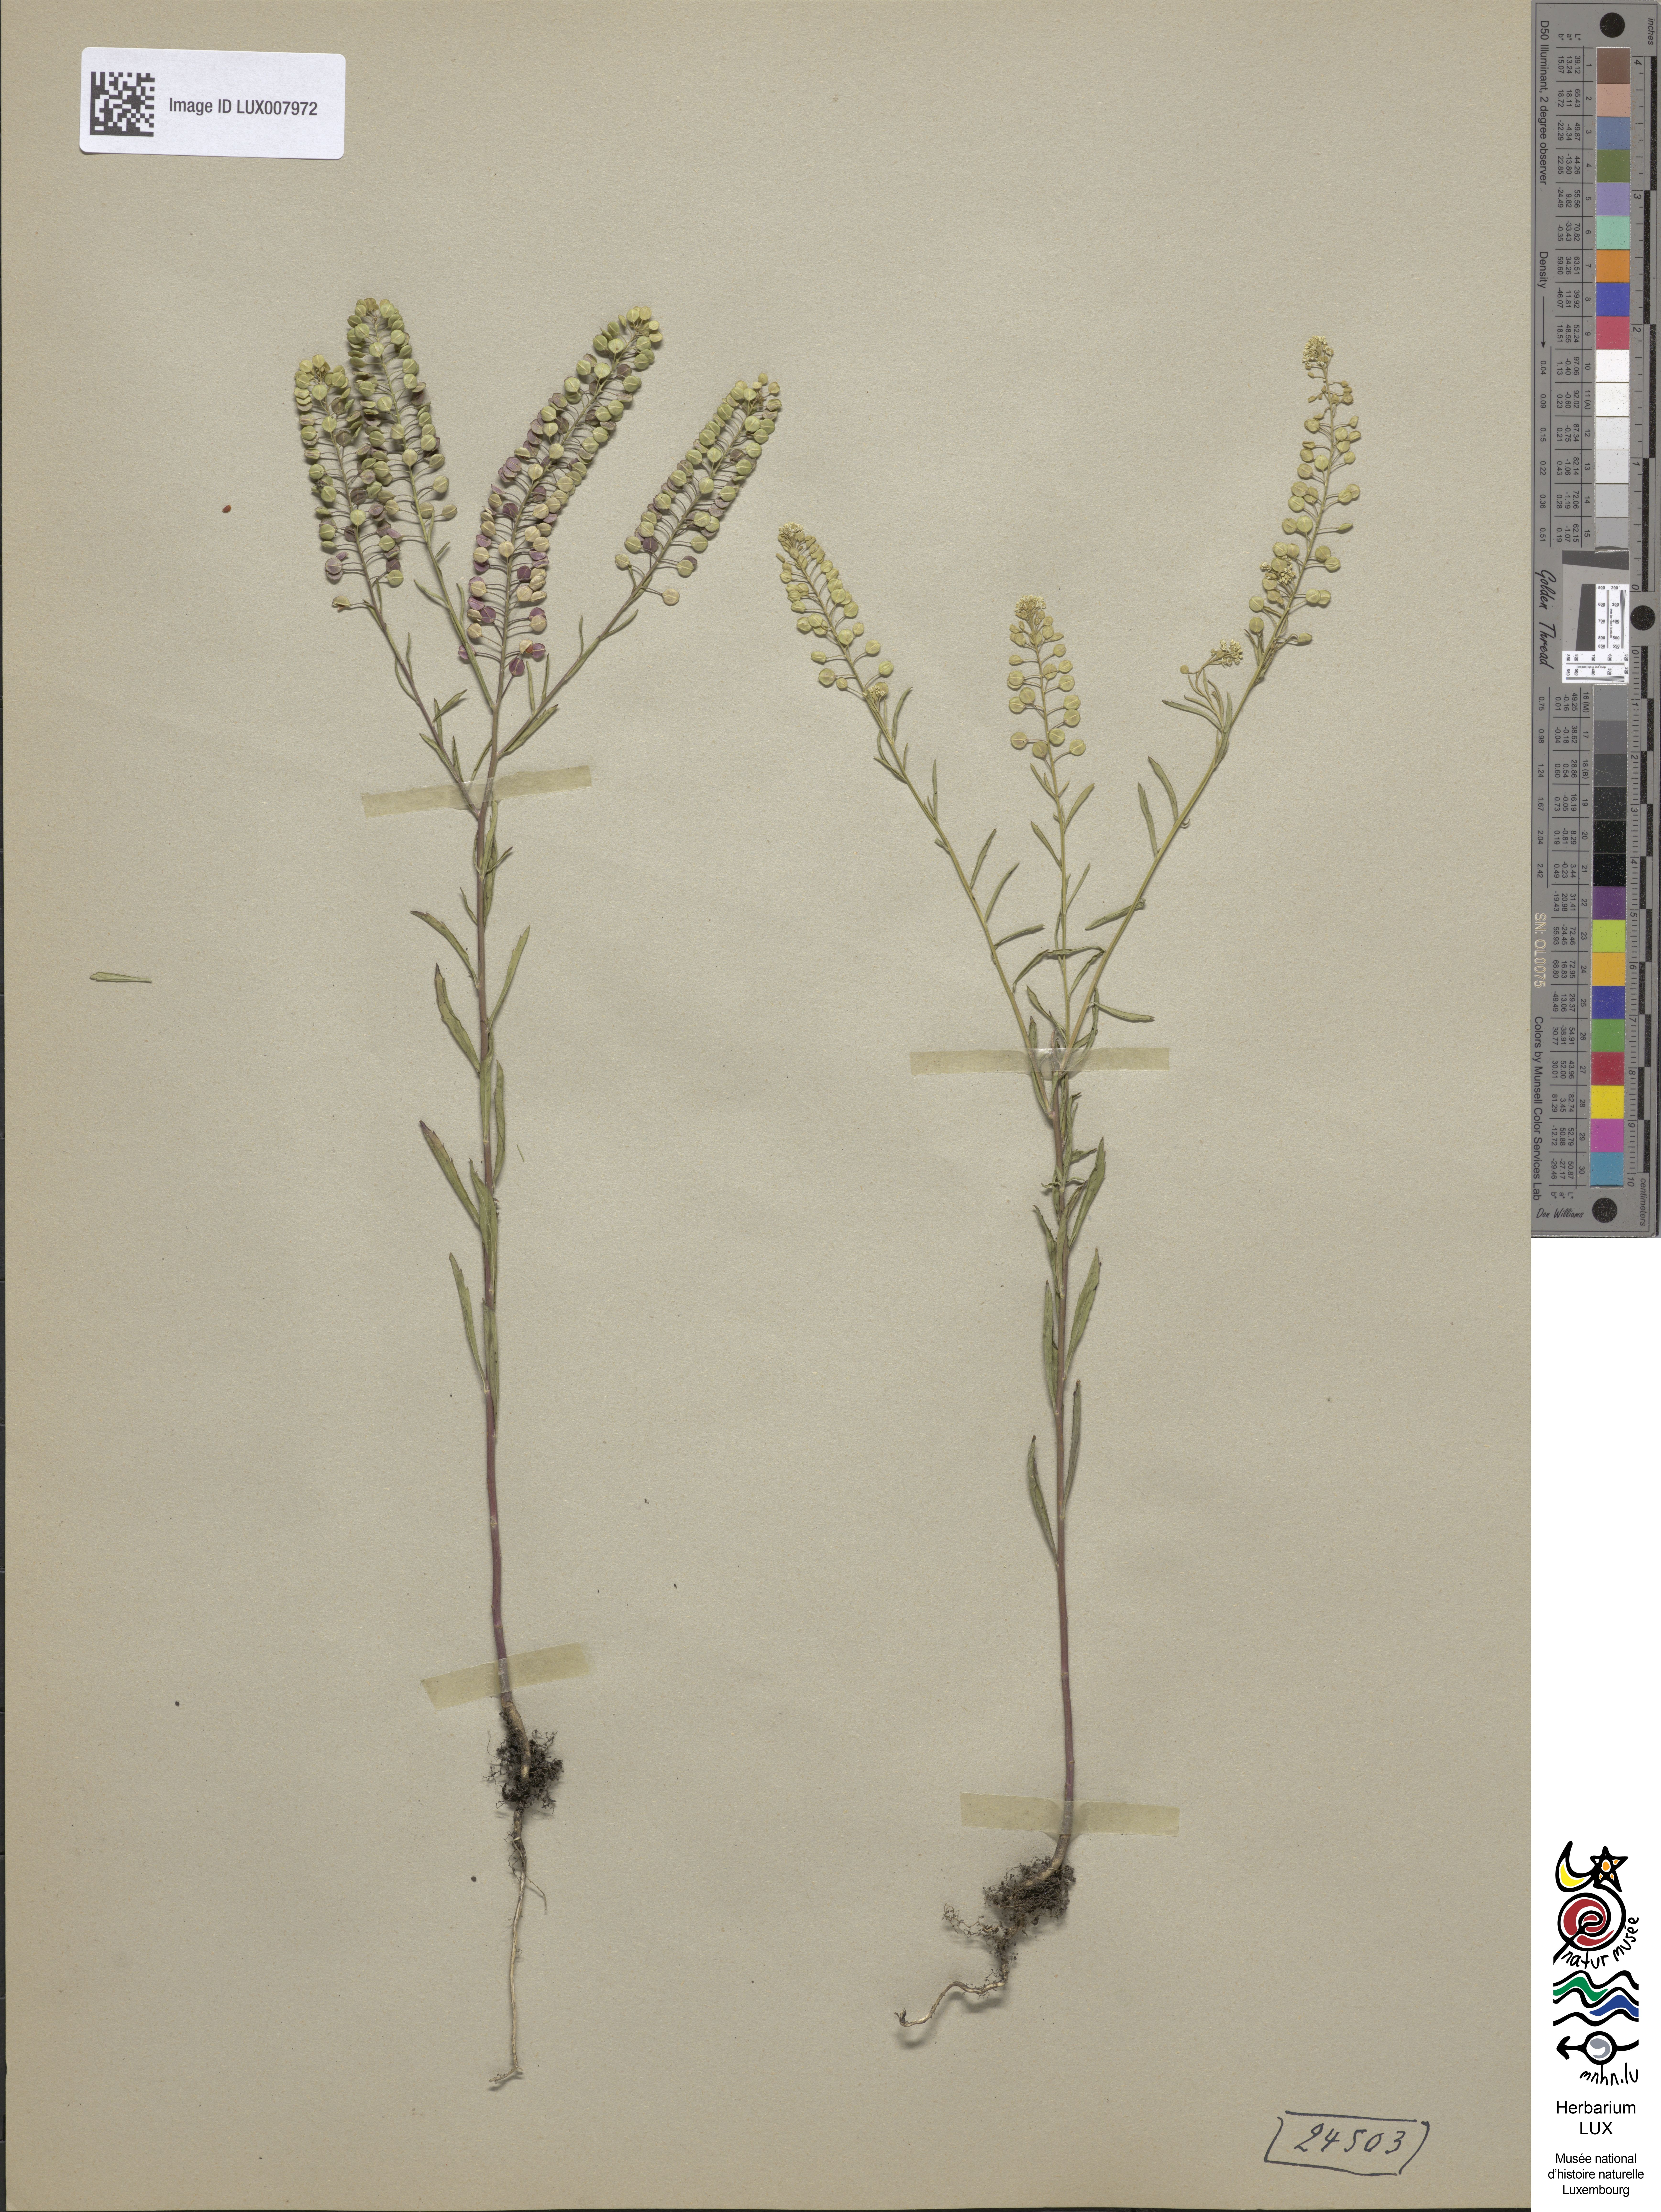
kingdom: Plantae
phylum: Tracheophyta
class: Magnoliopsida
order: Brassicales
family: Brassicaceae
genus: Lepidium
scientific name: Lepidium virginicum
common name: Least pepperwort
